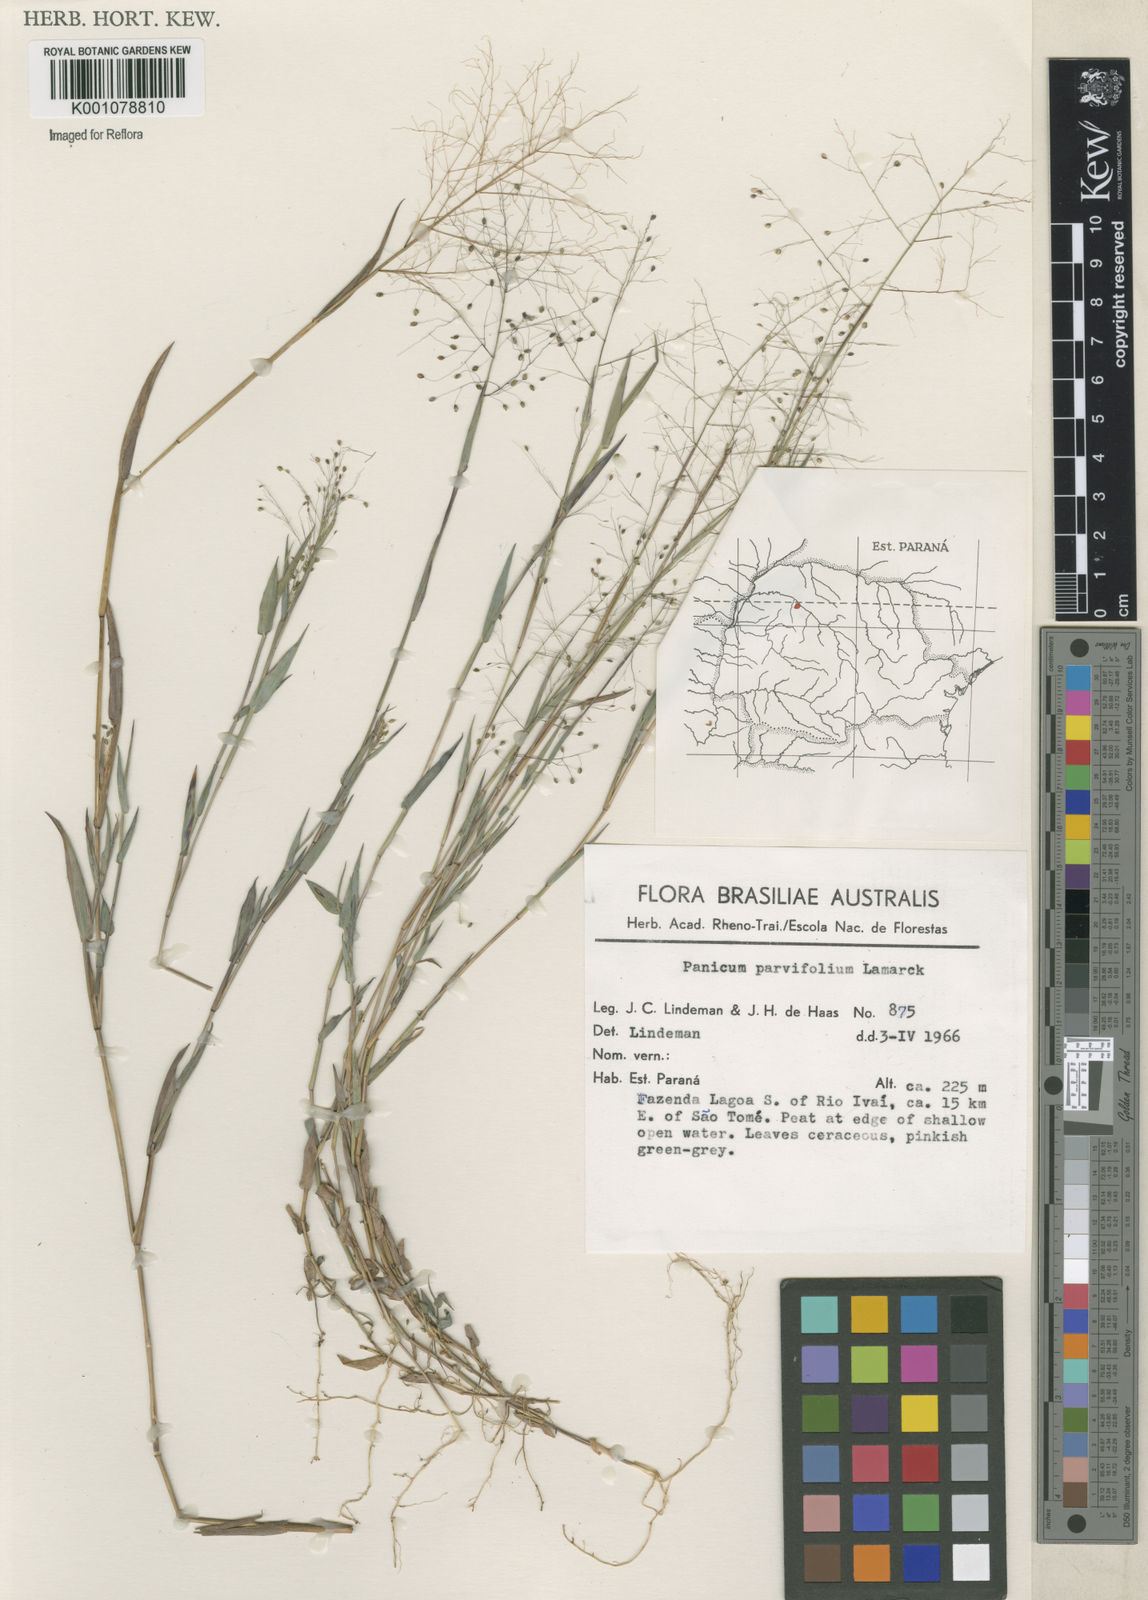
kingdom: Plantae
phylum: Tracheophyta
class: Liliopsida
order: Poales
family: Poaceae
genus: Trichanthecium
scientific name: Trichanthecium schwackeanum
